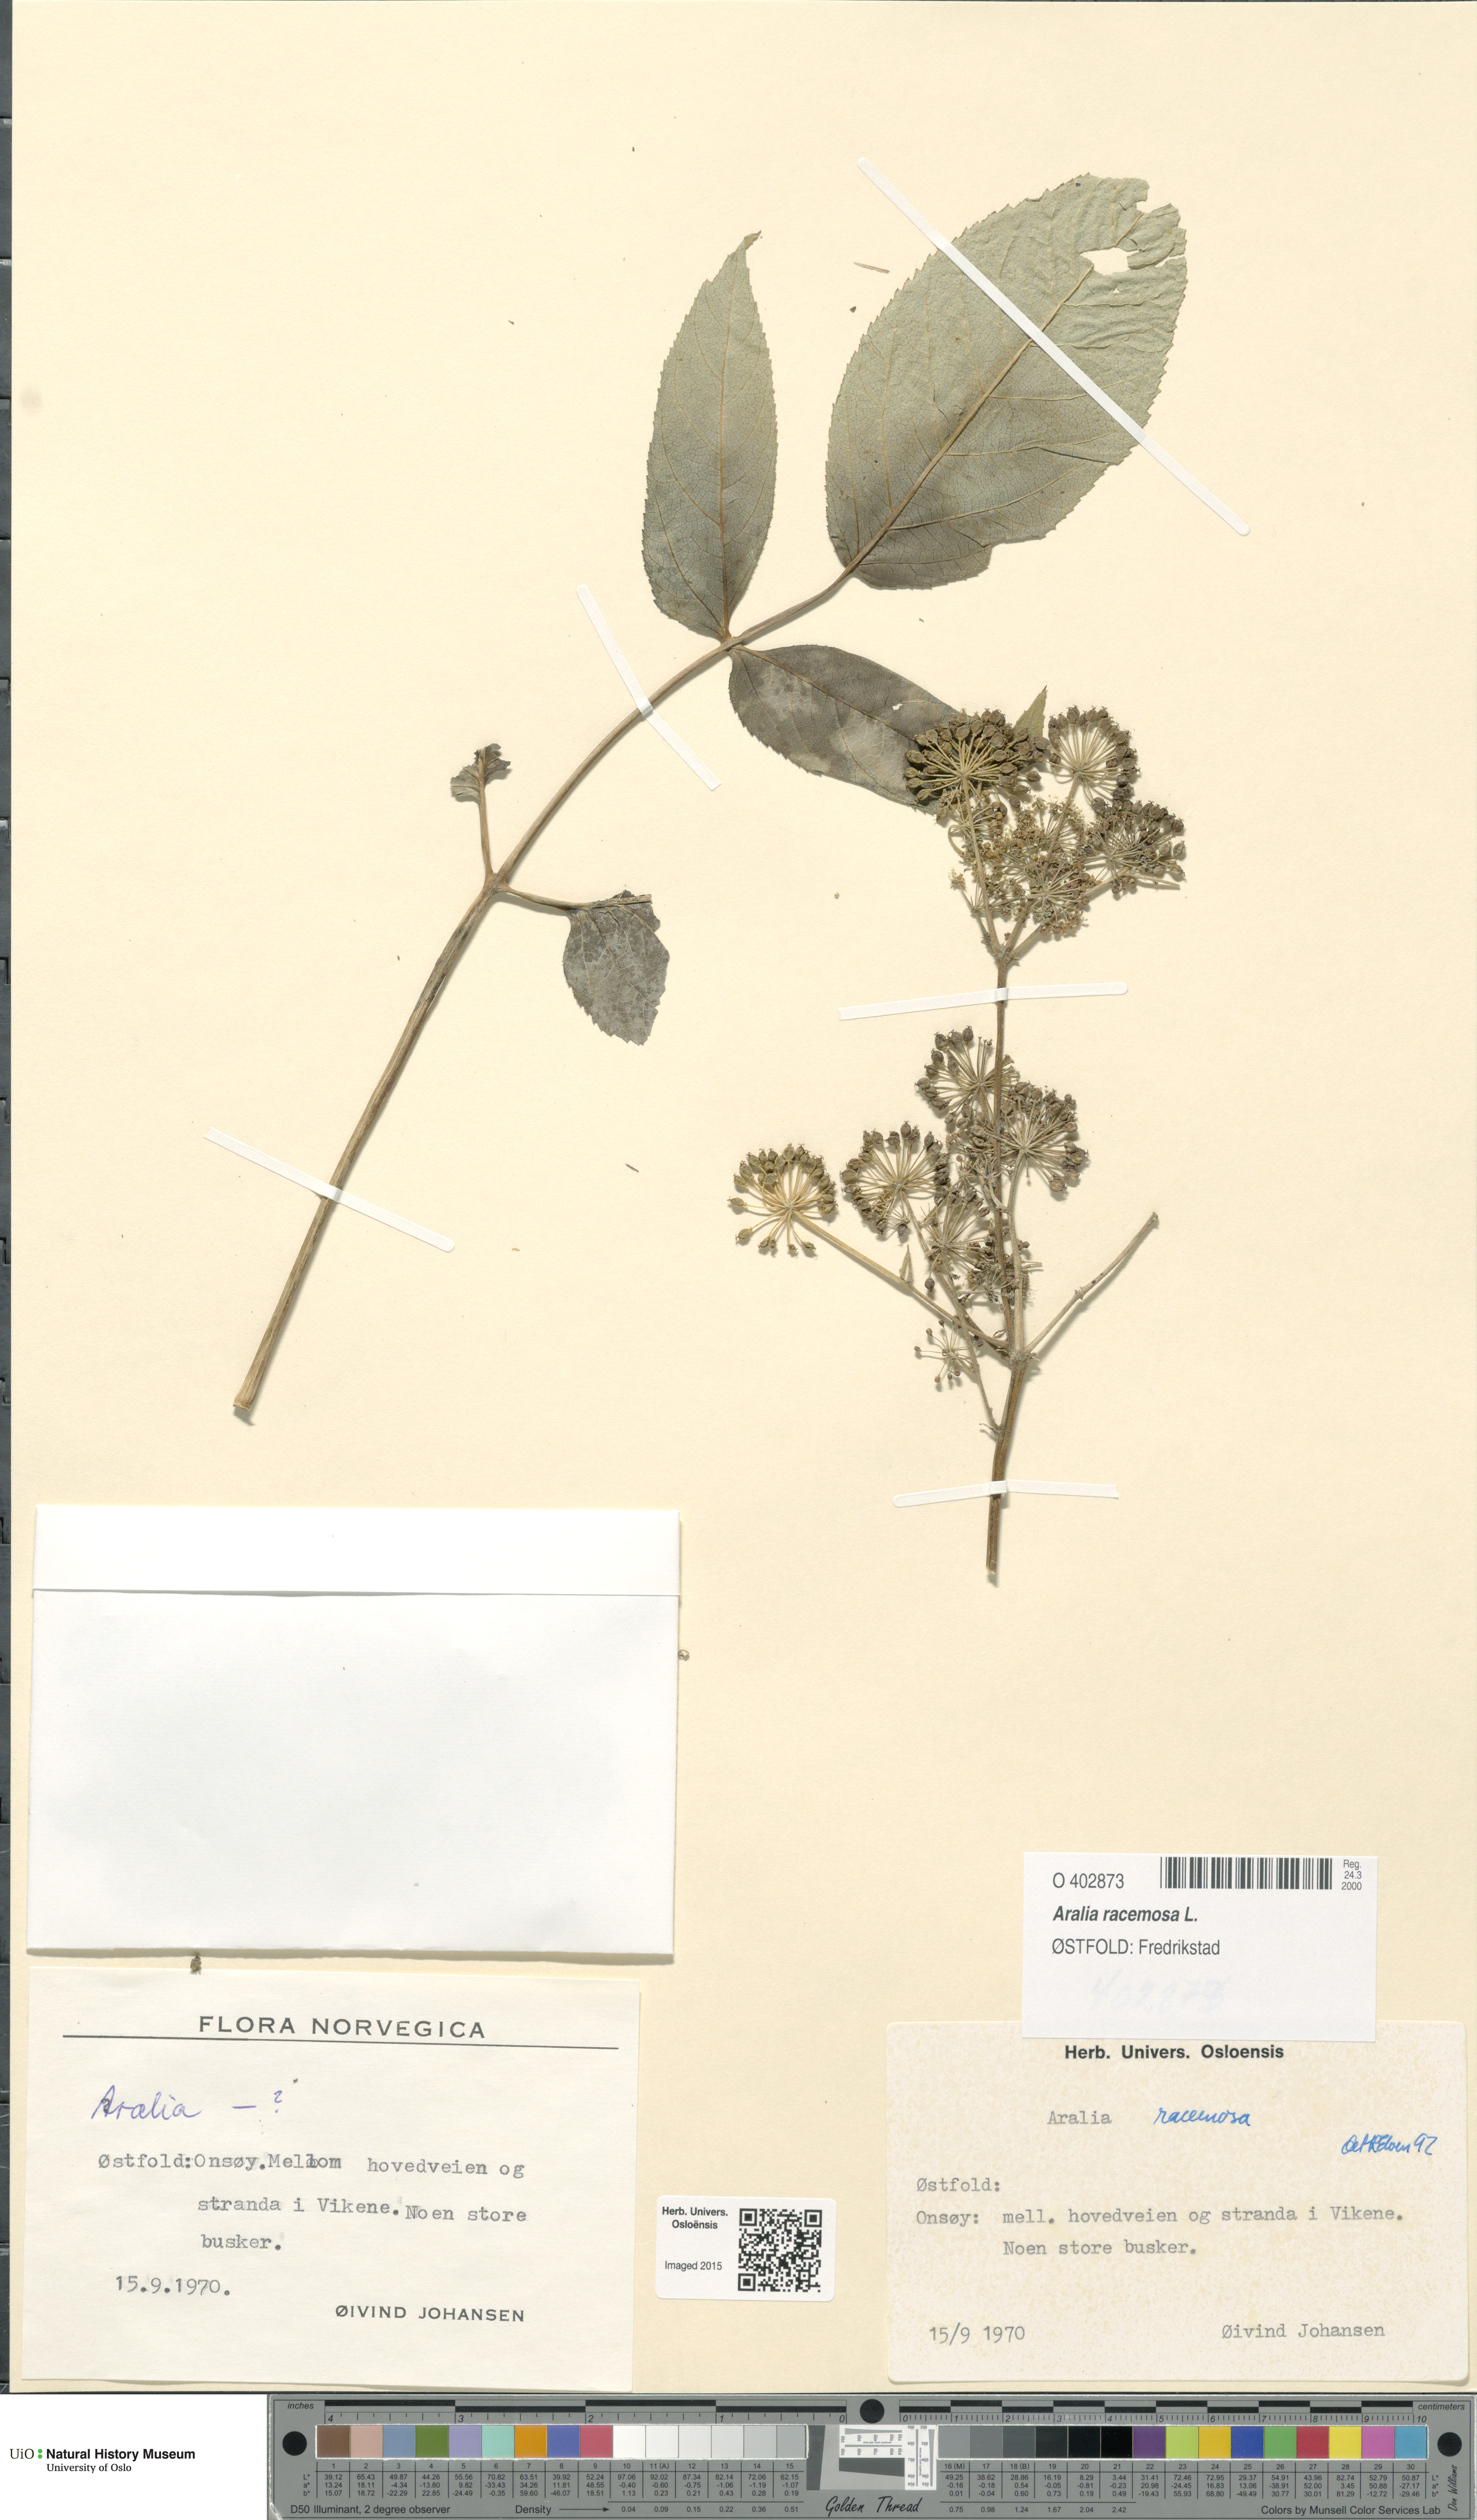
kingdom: Plantae
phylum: Tracheophyta
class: Magnoliopsida
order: Apiales
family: Araliaceae
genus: Aralia
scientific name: Aralia racemosa
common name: American-spikenard
